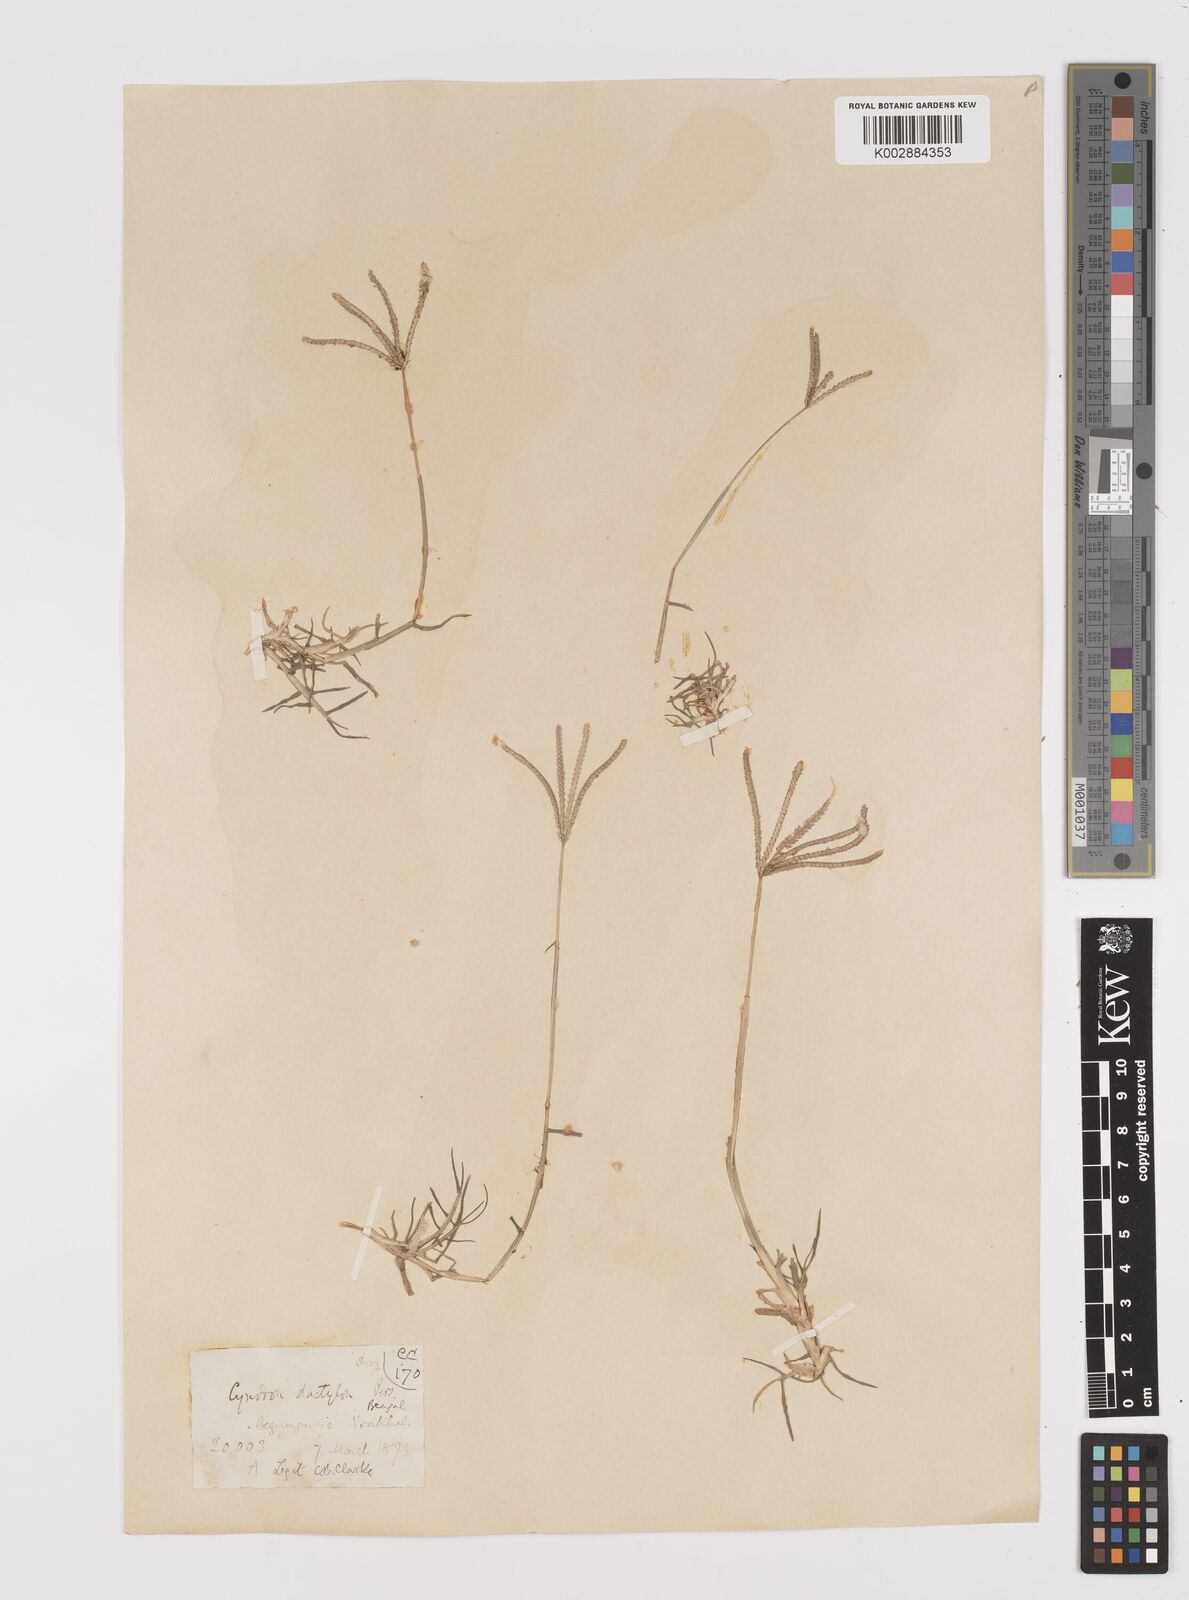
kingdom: Plantae
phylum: Tracheophyta
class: Liliopsida
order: Poales
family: Poaceae
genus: Cynodon
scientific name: Cynodon dactylon
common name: Bermuda grass
